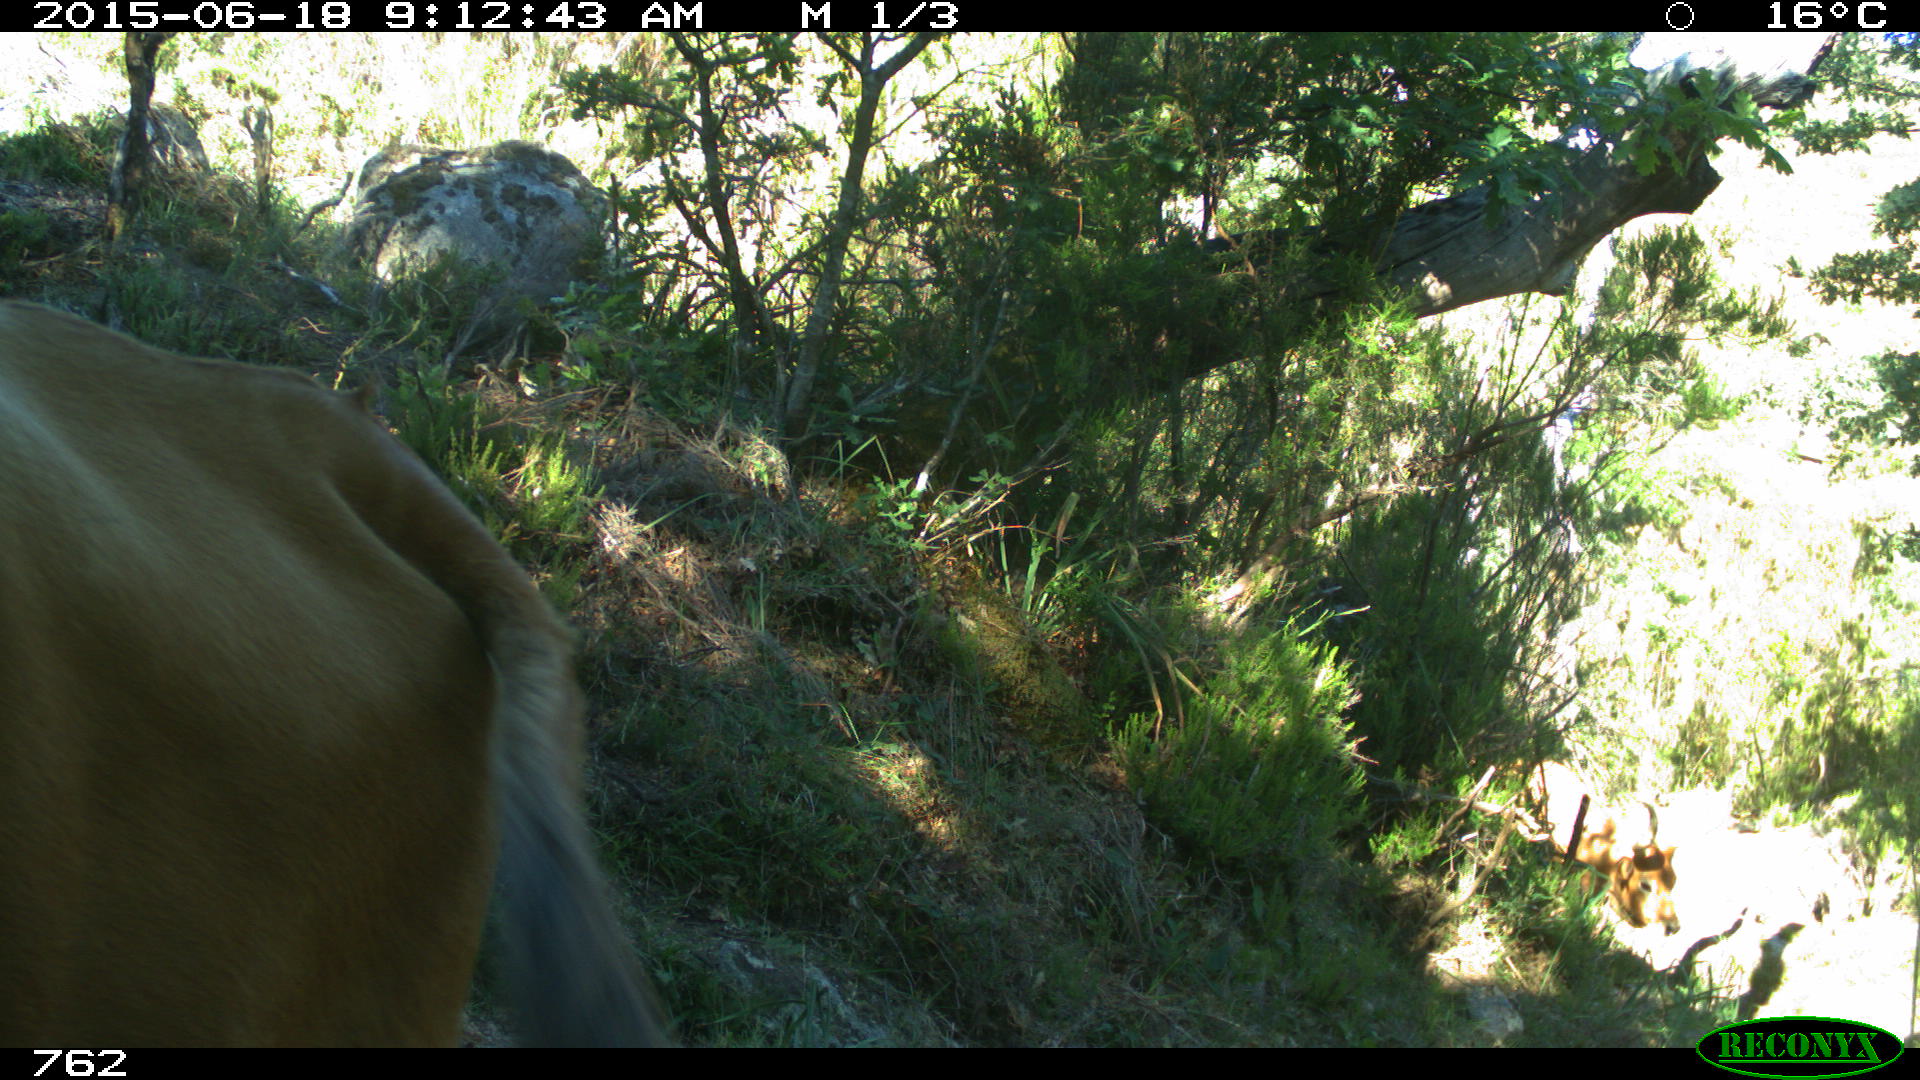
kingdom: Animalia
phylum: Chordata
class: Mammalia
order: Artiodactyla
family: Bovidae
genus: Bos
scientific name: Bos taurus
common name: Domesticated cattle
